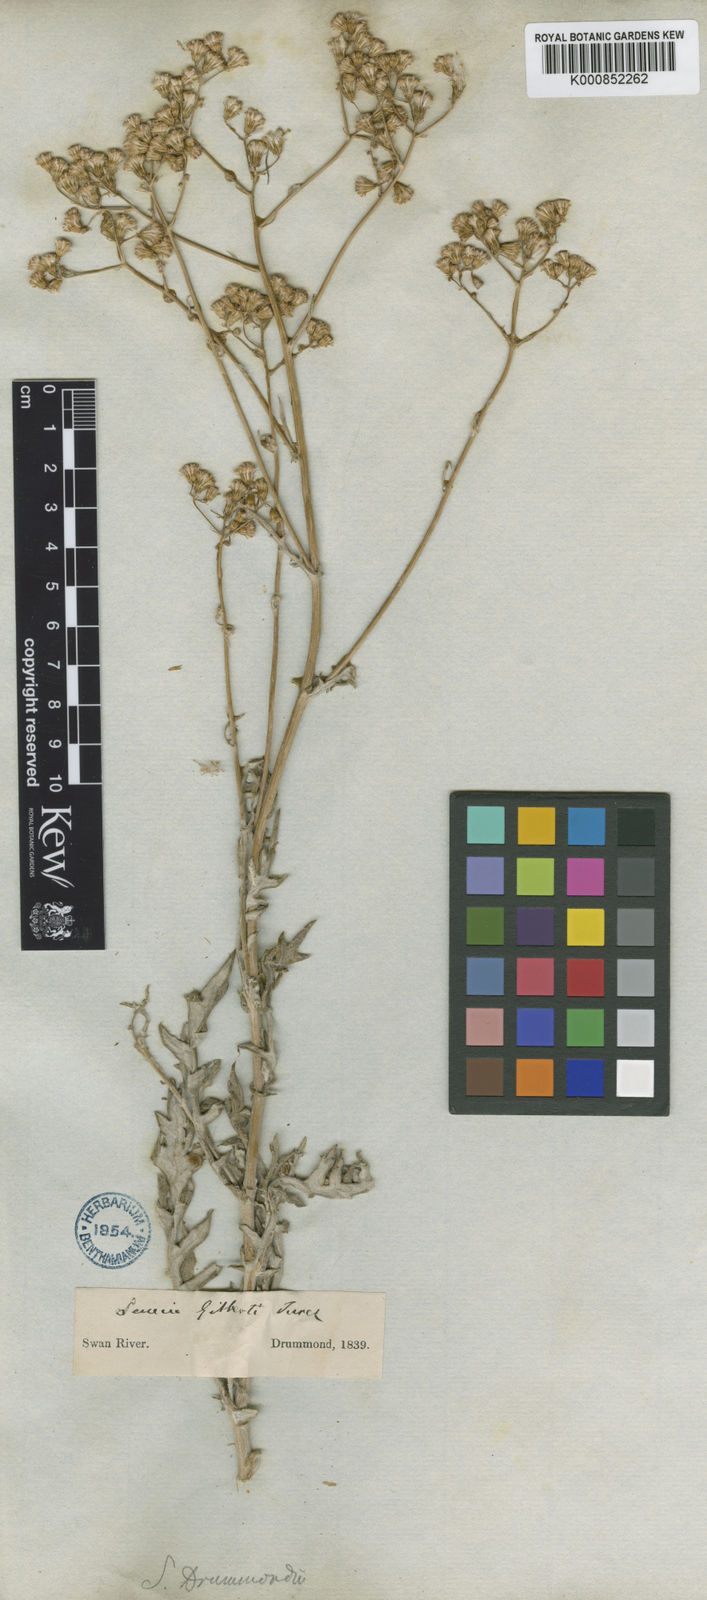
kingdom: Plantae
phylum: Tracheophyta
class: Magnoliopsida
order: Asterales
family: Asteraceae
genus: Senecio
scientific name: Senecio gilbertii
